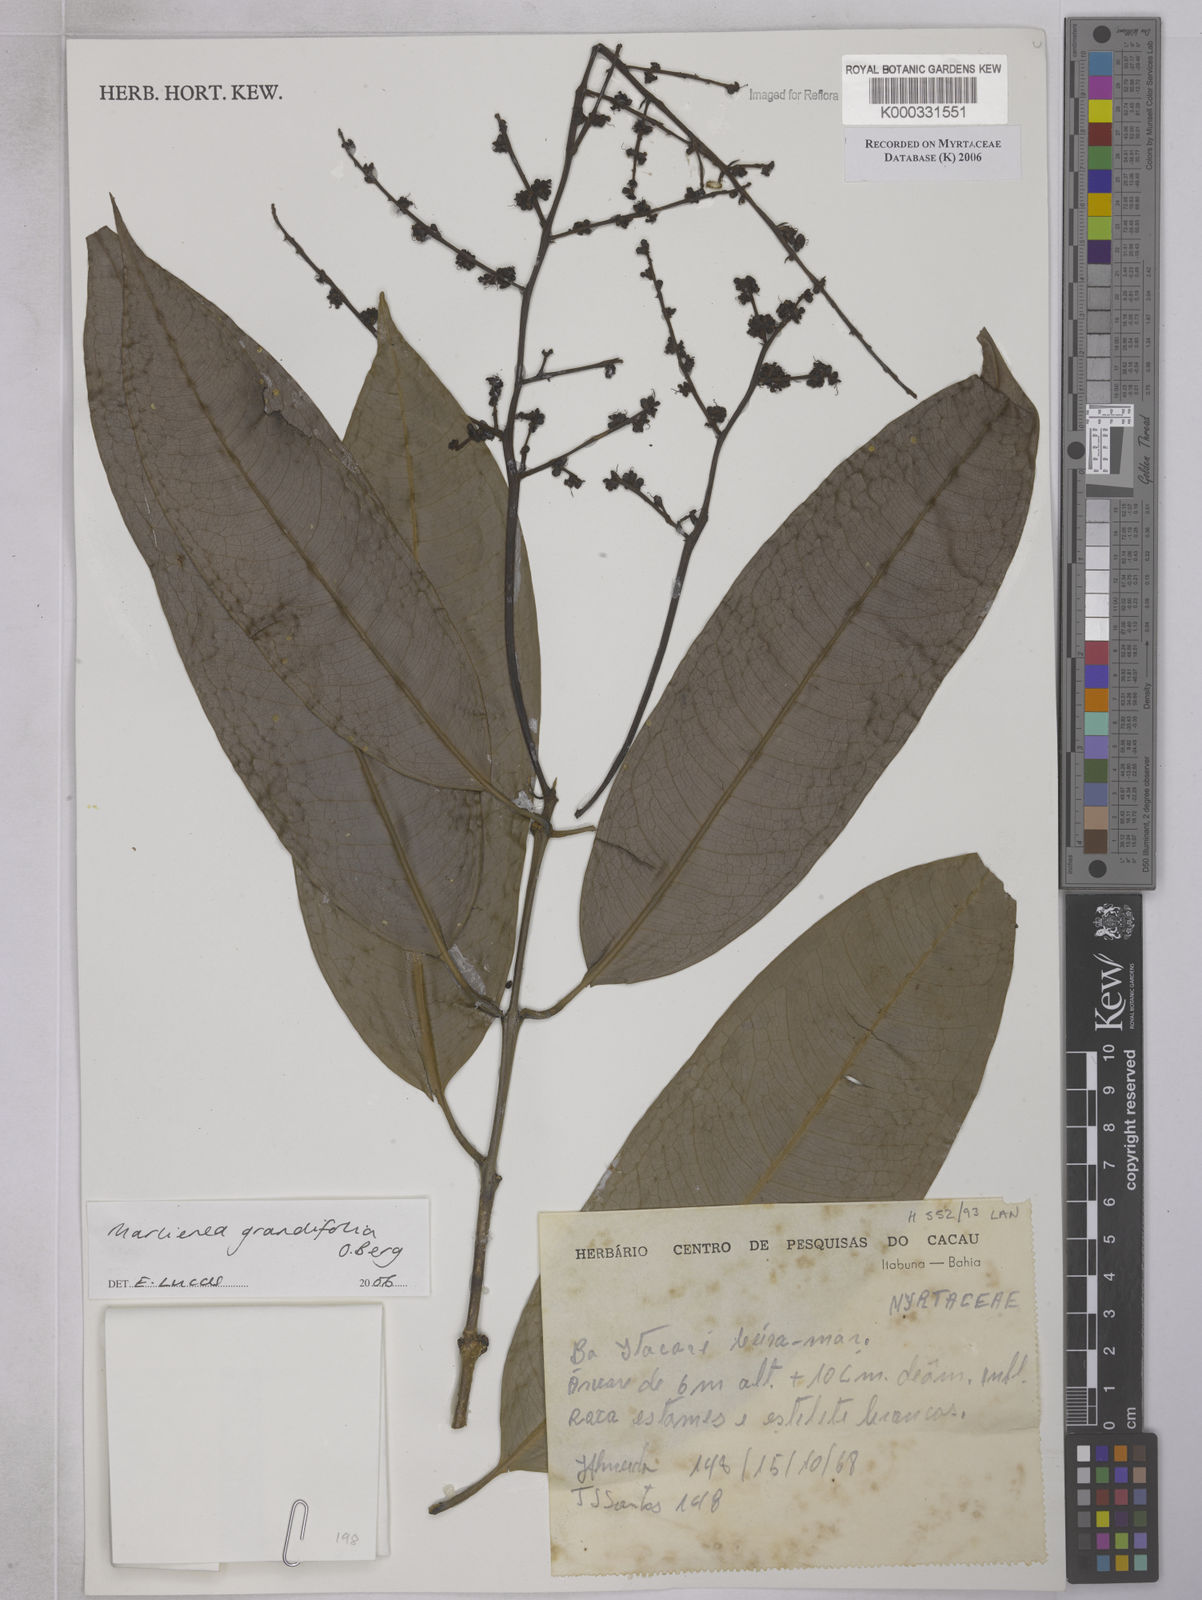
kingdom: Plantae
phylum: Tracheophyta
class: Magnoliopsida
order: Myrtales
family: Myrtaceae
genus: Myrcia
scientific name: Myrcia neoglabra
